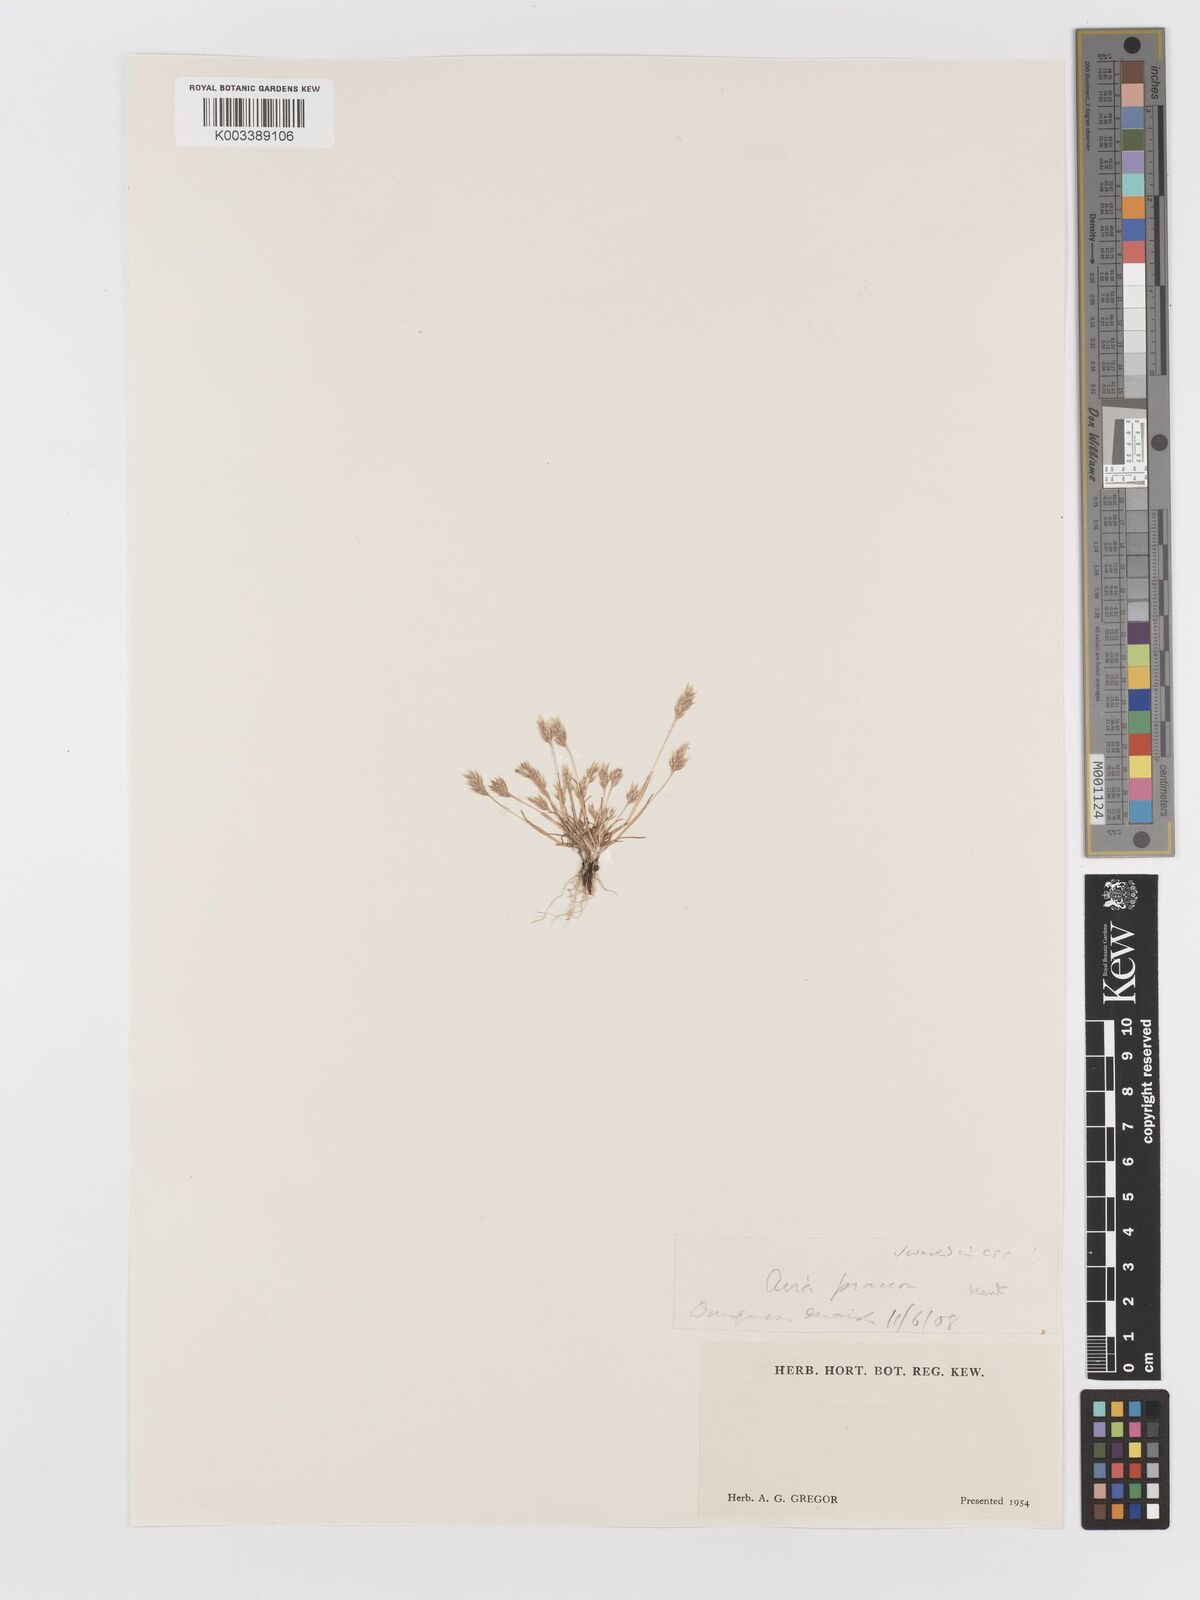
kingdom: Plantae
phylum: Tracheophyta
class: Liliopsida
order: Poales
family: Poaceae
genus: Aira
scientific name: Aira praecox
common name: Early hair-grass
